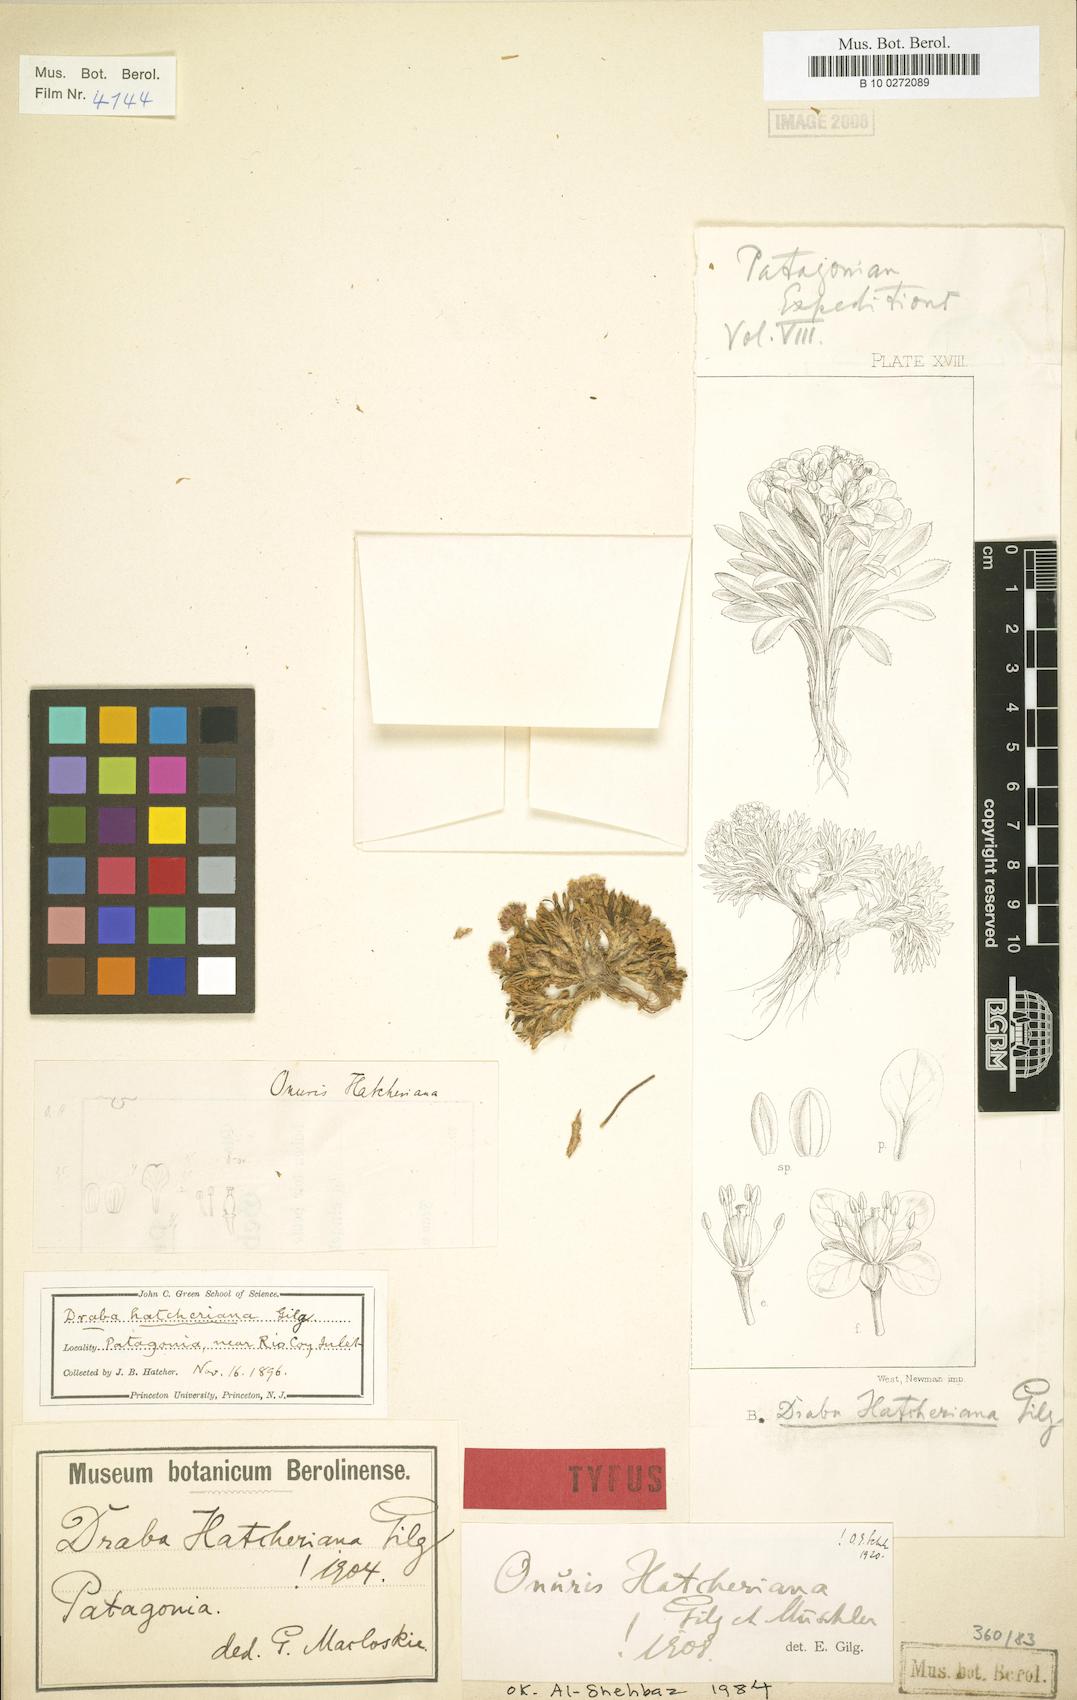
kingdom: Plantae
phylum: Tracheophyta
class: Magnoliopsida
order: Brassicales
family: Brassicaceae
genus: Onuris
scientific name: Onuris hatcheriana
